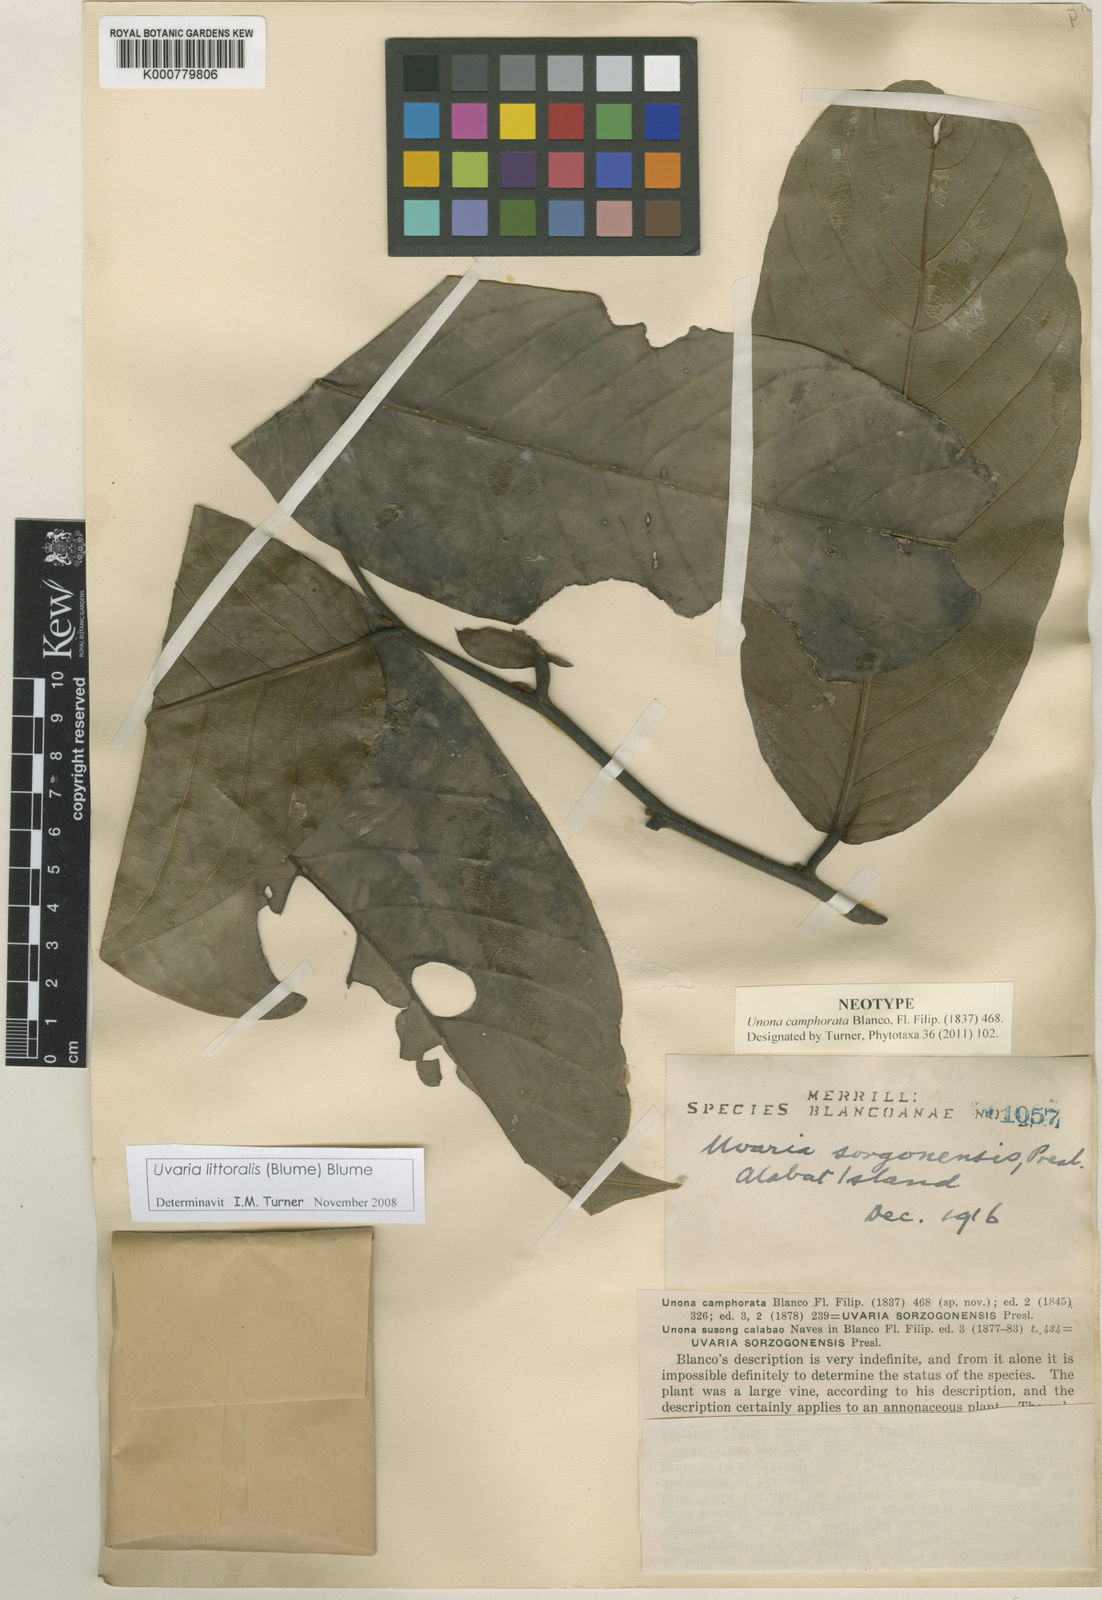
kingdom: Plantae
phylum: Tracheophyta
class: Magnoliopsida
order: Magnoliales
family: Annonaceae
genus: Uvaria
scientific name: Uvaria littoralis
